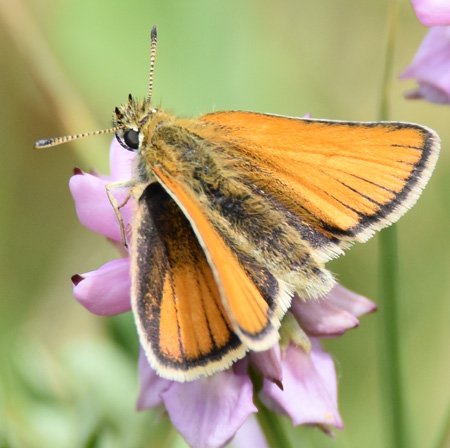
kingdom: Animalia
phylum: Arthropoda
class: Insecta
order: Lepidoptera
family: Hesperiidae
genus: Thymelicus
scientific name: Thymelicus lineola
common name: European Skipper
